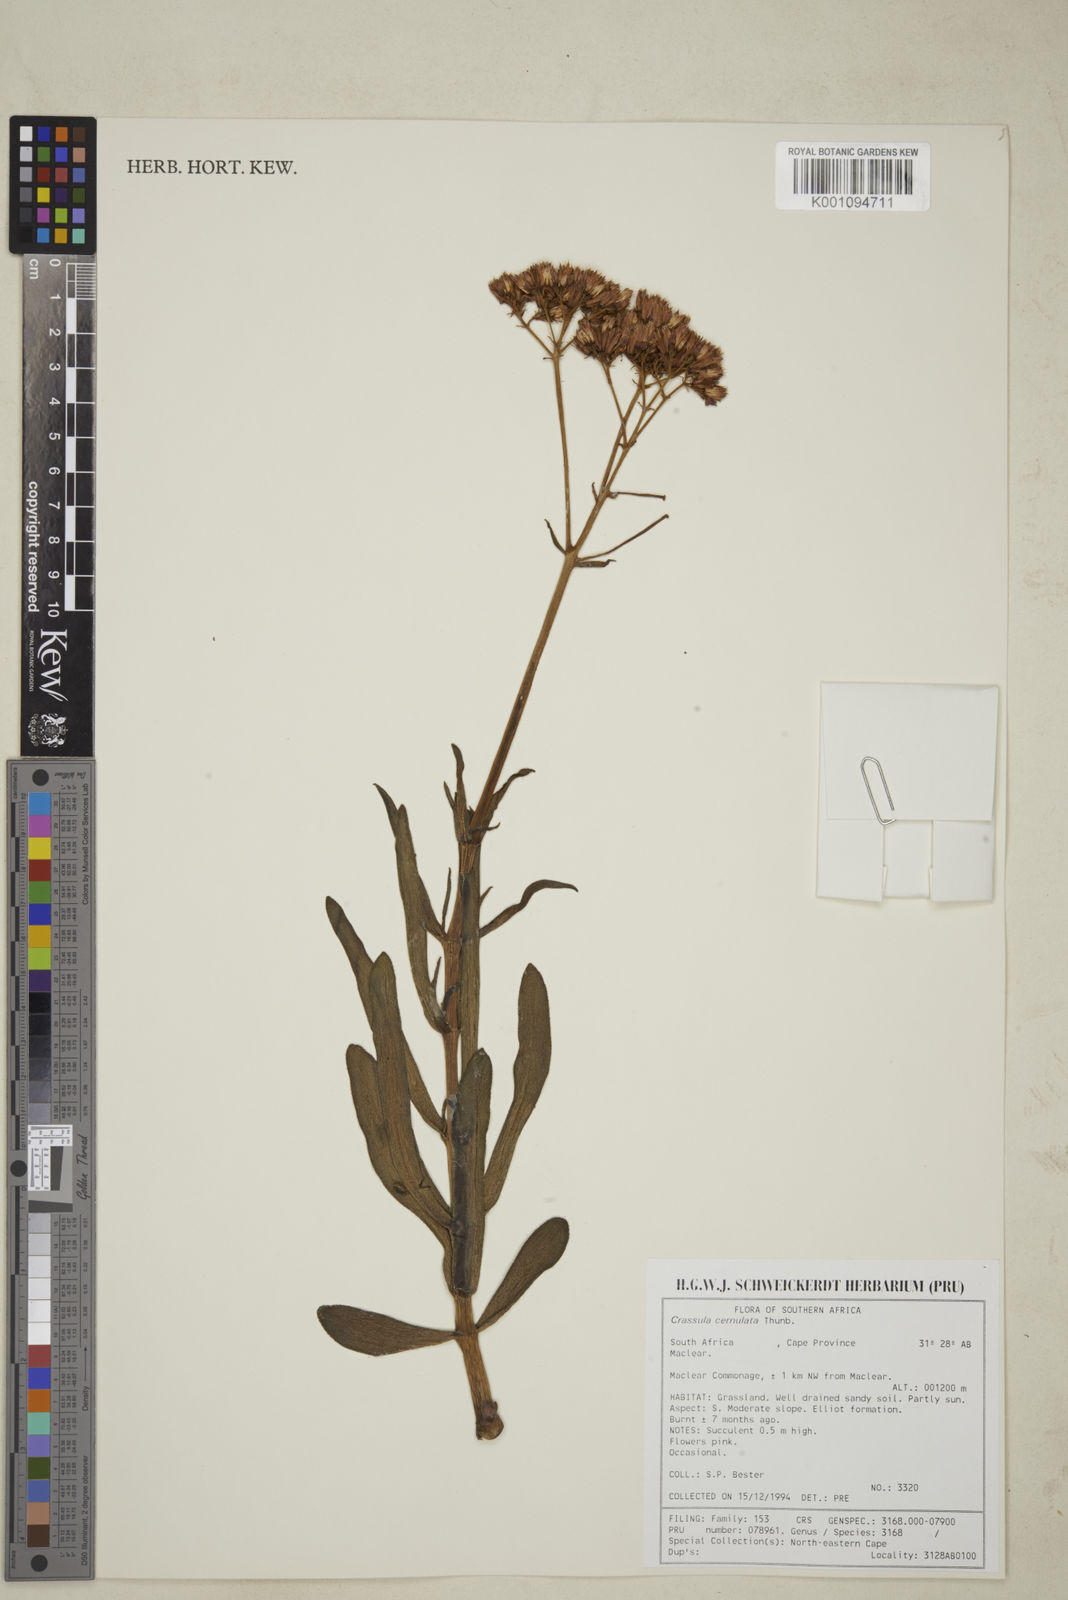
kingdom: Plantae
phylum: Tracheophyta
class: Magnoliopsida
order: Saxifragales
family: Crassulaceae
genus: Crassula
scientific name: Crassula crenulata
